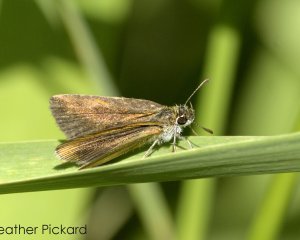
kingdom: Animalia
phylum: Arthropoda
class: Insecta
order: Lepidoptera
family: Hesperiidae
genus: Euphyes
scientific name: Euphyes dion
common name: Dion Skipper
